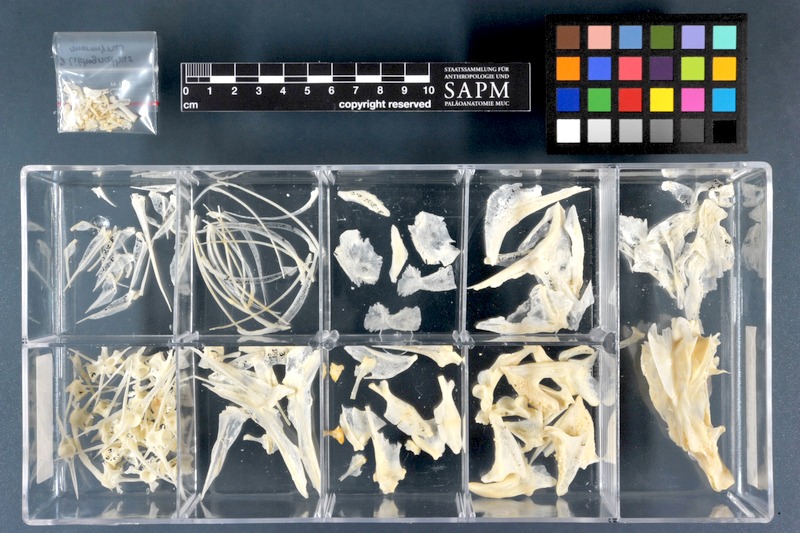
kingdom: Animalia
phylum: Chordata
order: Perciformes
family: Sparidae
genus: Lithognathus
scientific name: Lithognathus mormyrus
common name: Sand steenbras
